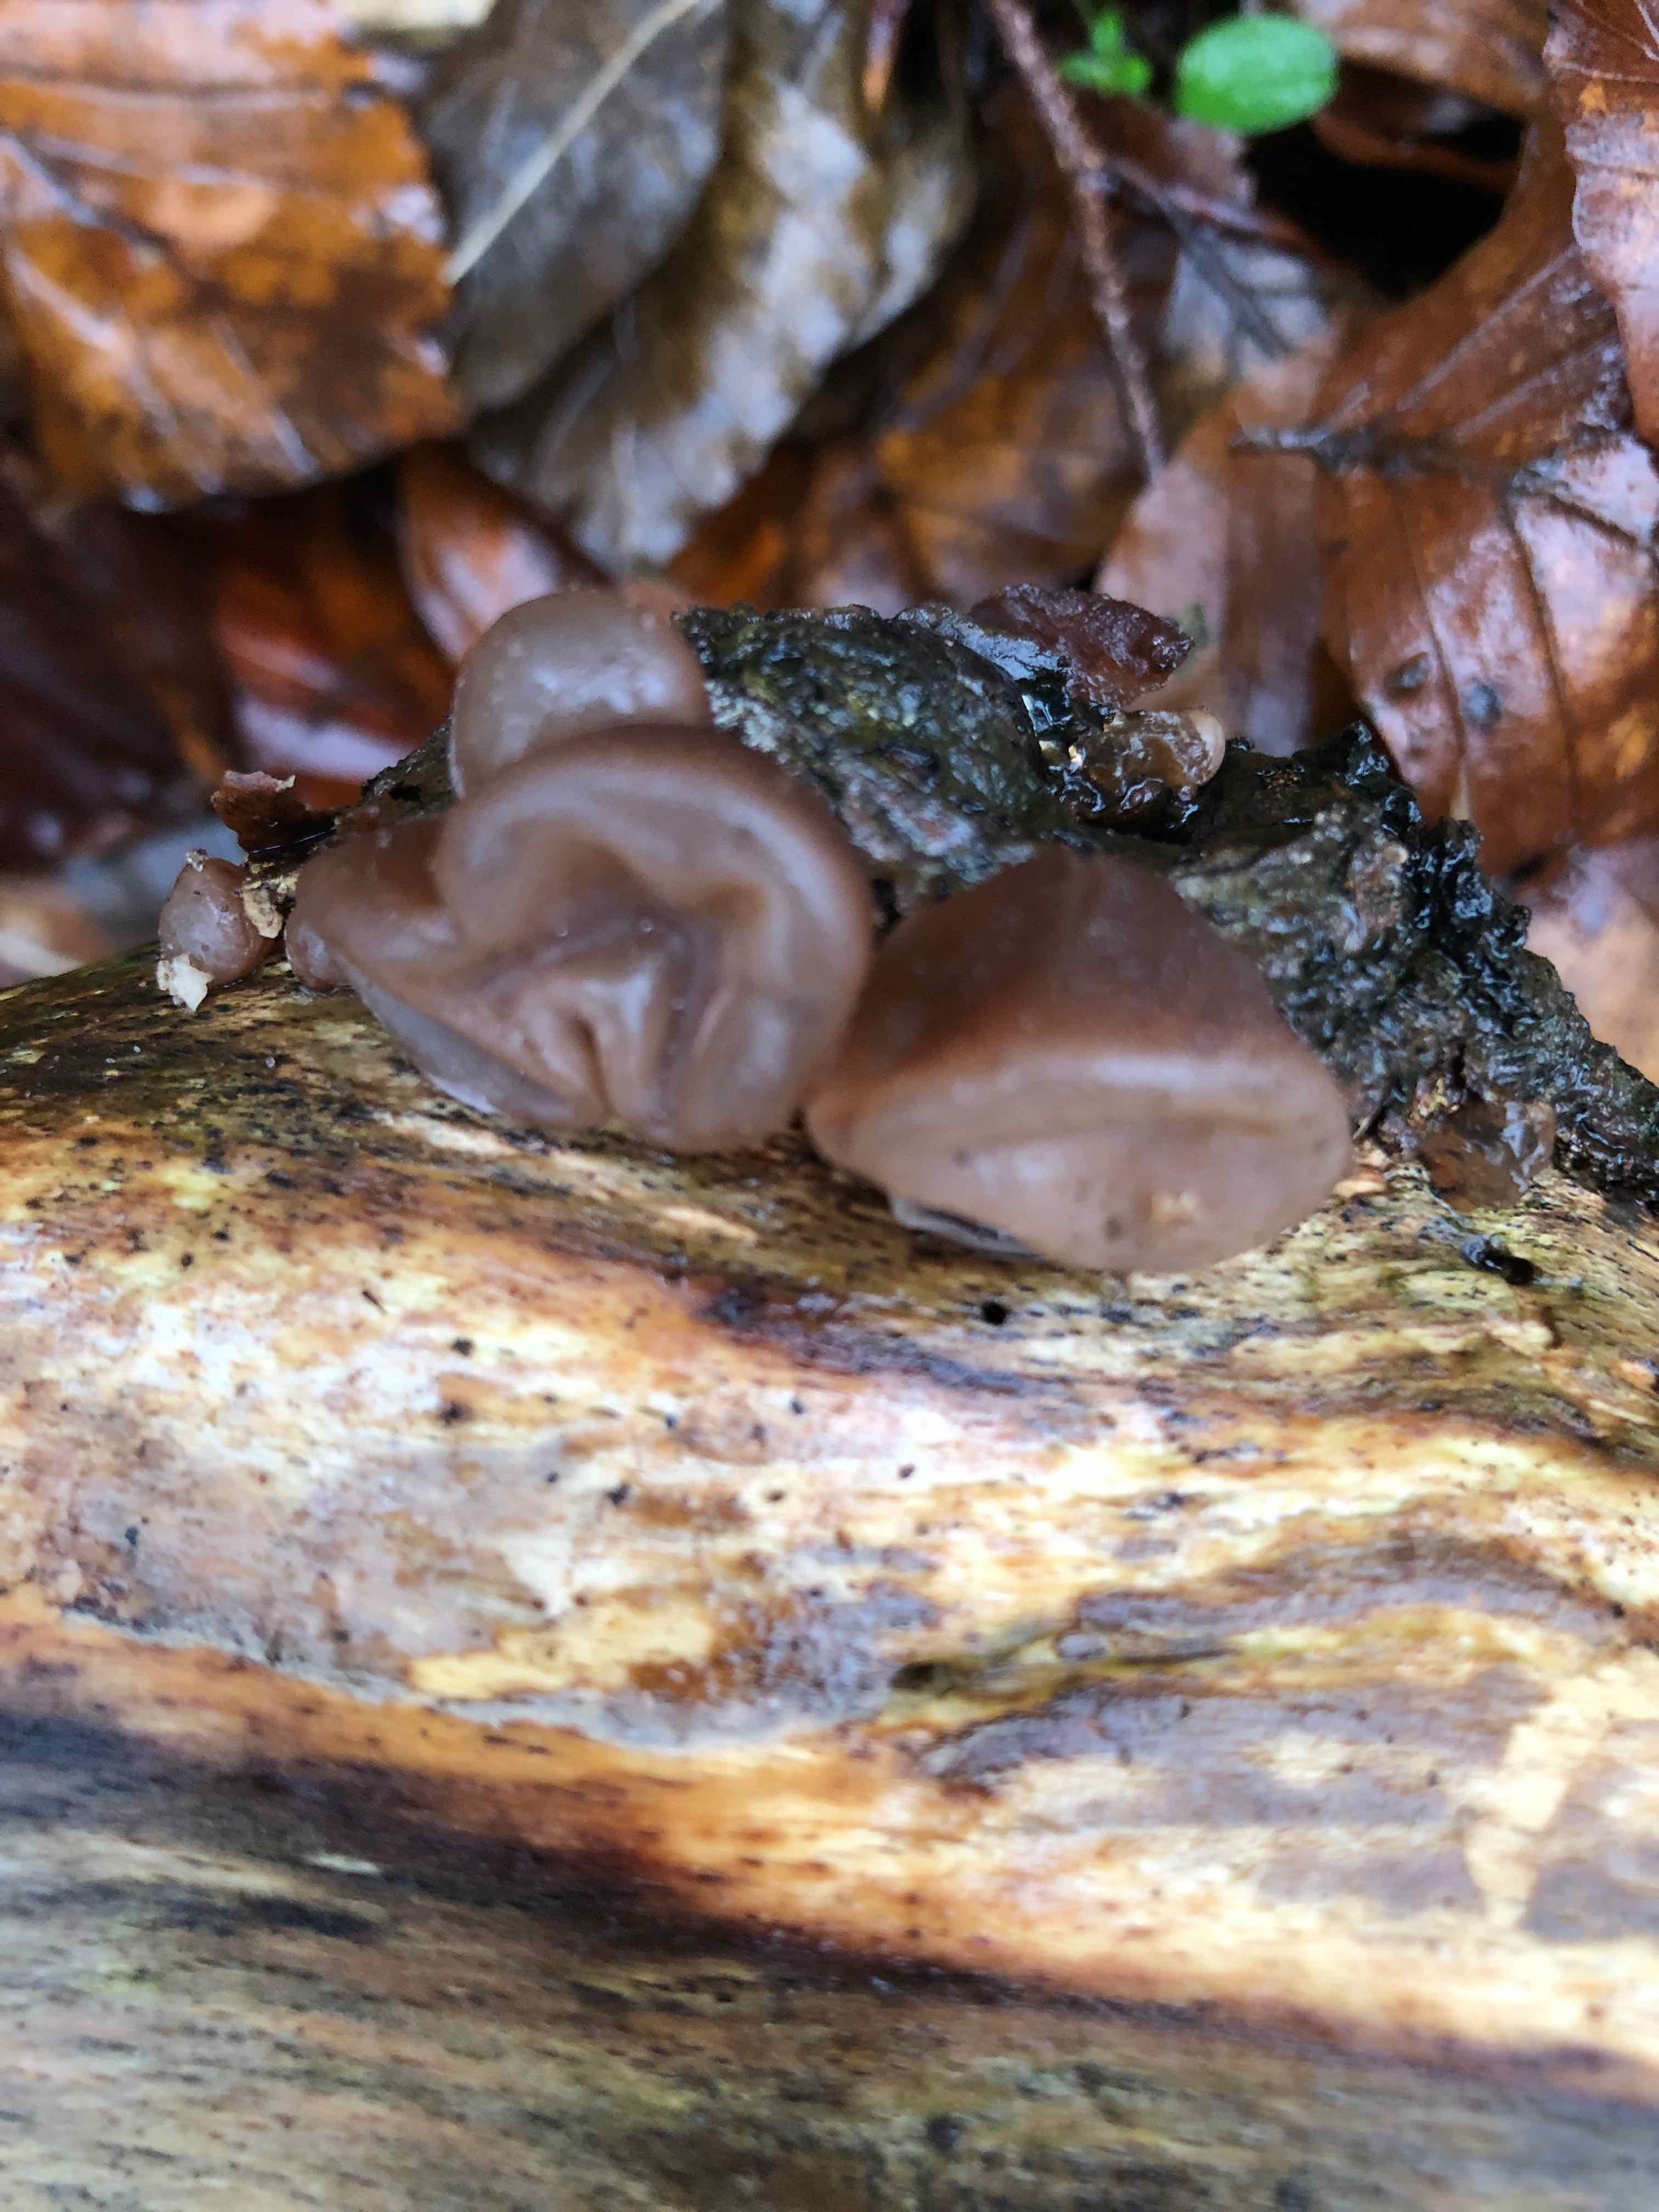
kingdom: Fungi
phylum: Basidiomycota
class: Agaricomycetes
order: Auriculariales
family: Auriculariaceae
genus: Auricularia
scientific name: Auricularia auricula-judae
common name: almindelig judasøre
